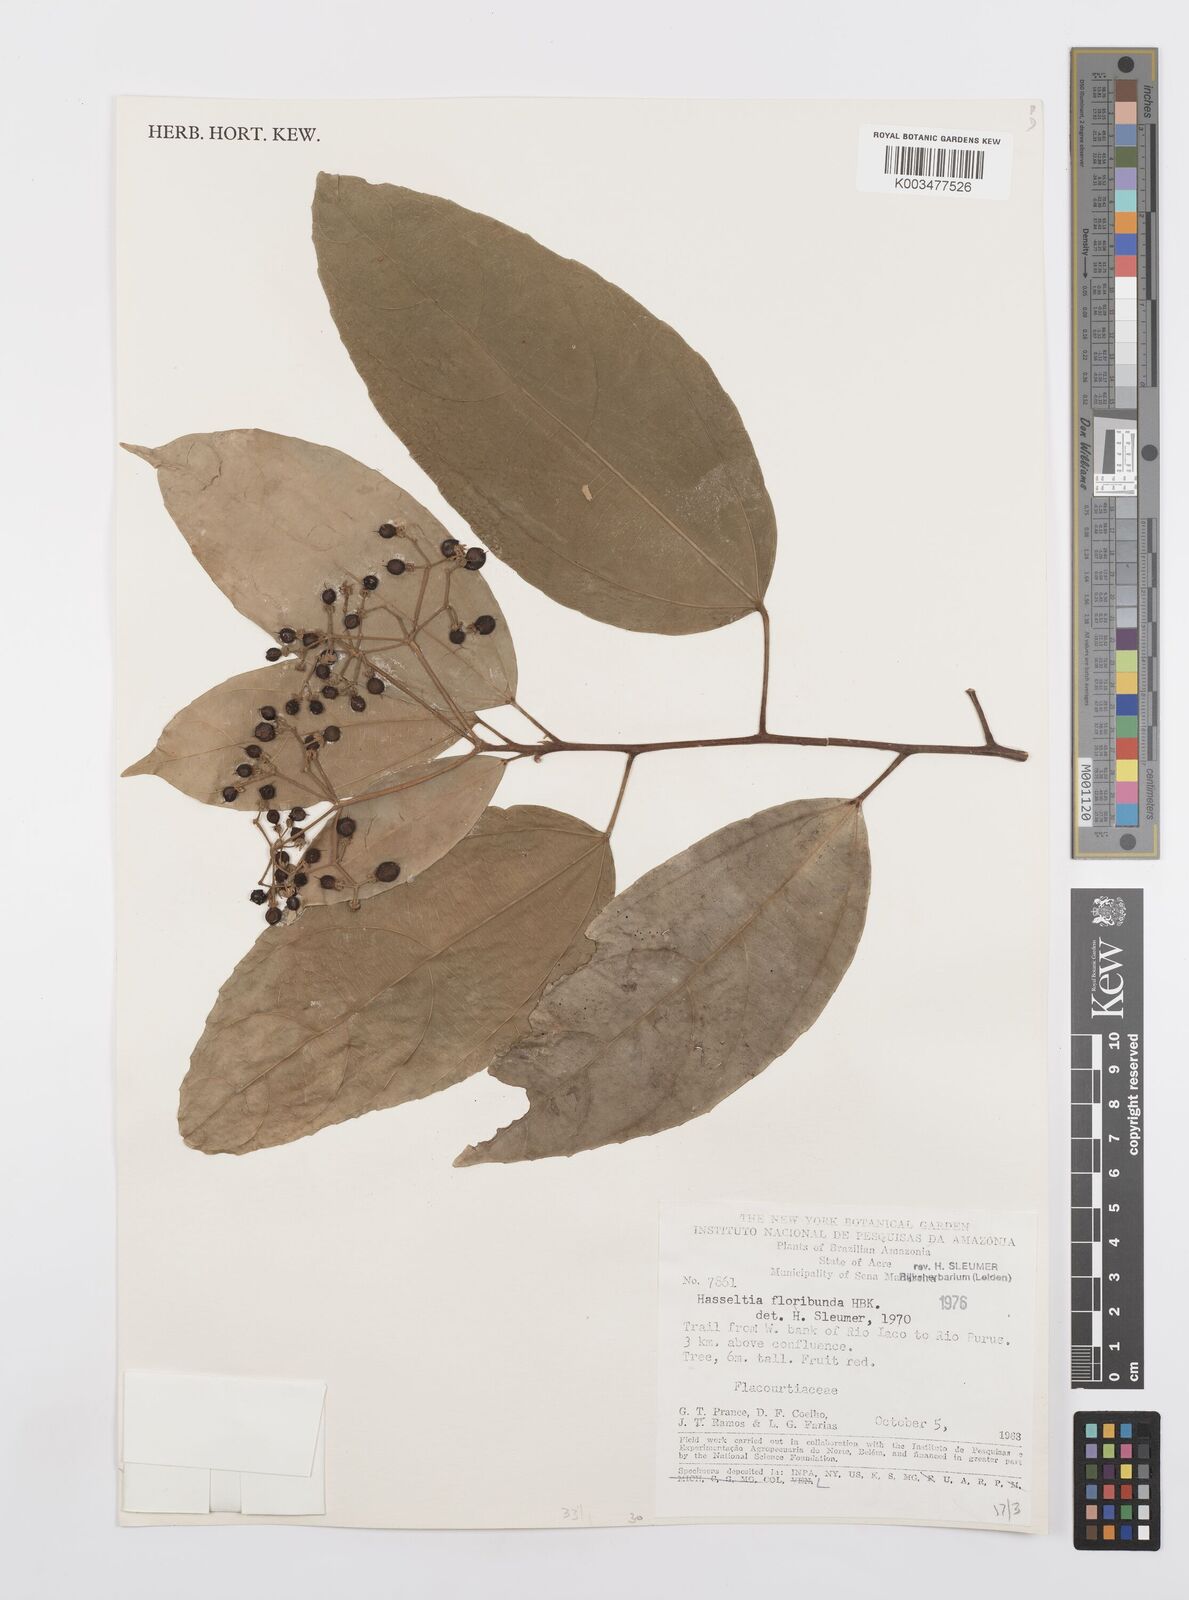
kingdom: Plantae
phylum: Tracheophyta
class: Magnoliopsida
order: Malpighiales
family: Salicaceae
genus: Hasseltia
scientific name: Hasseltia floribunda
